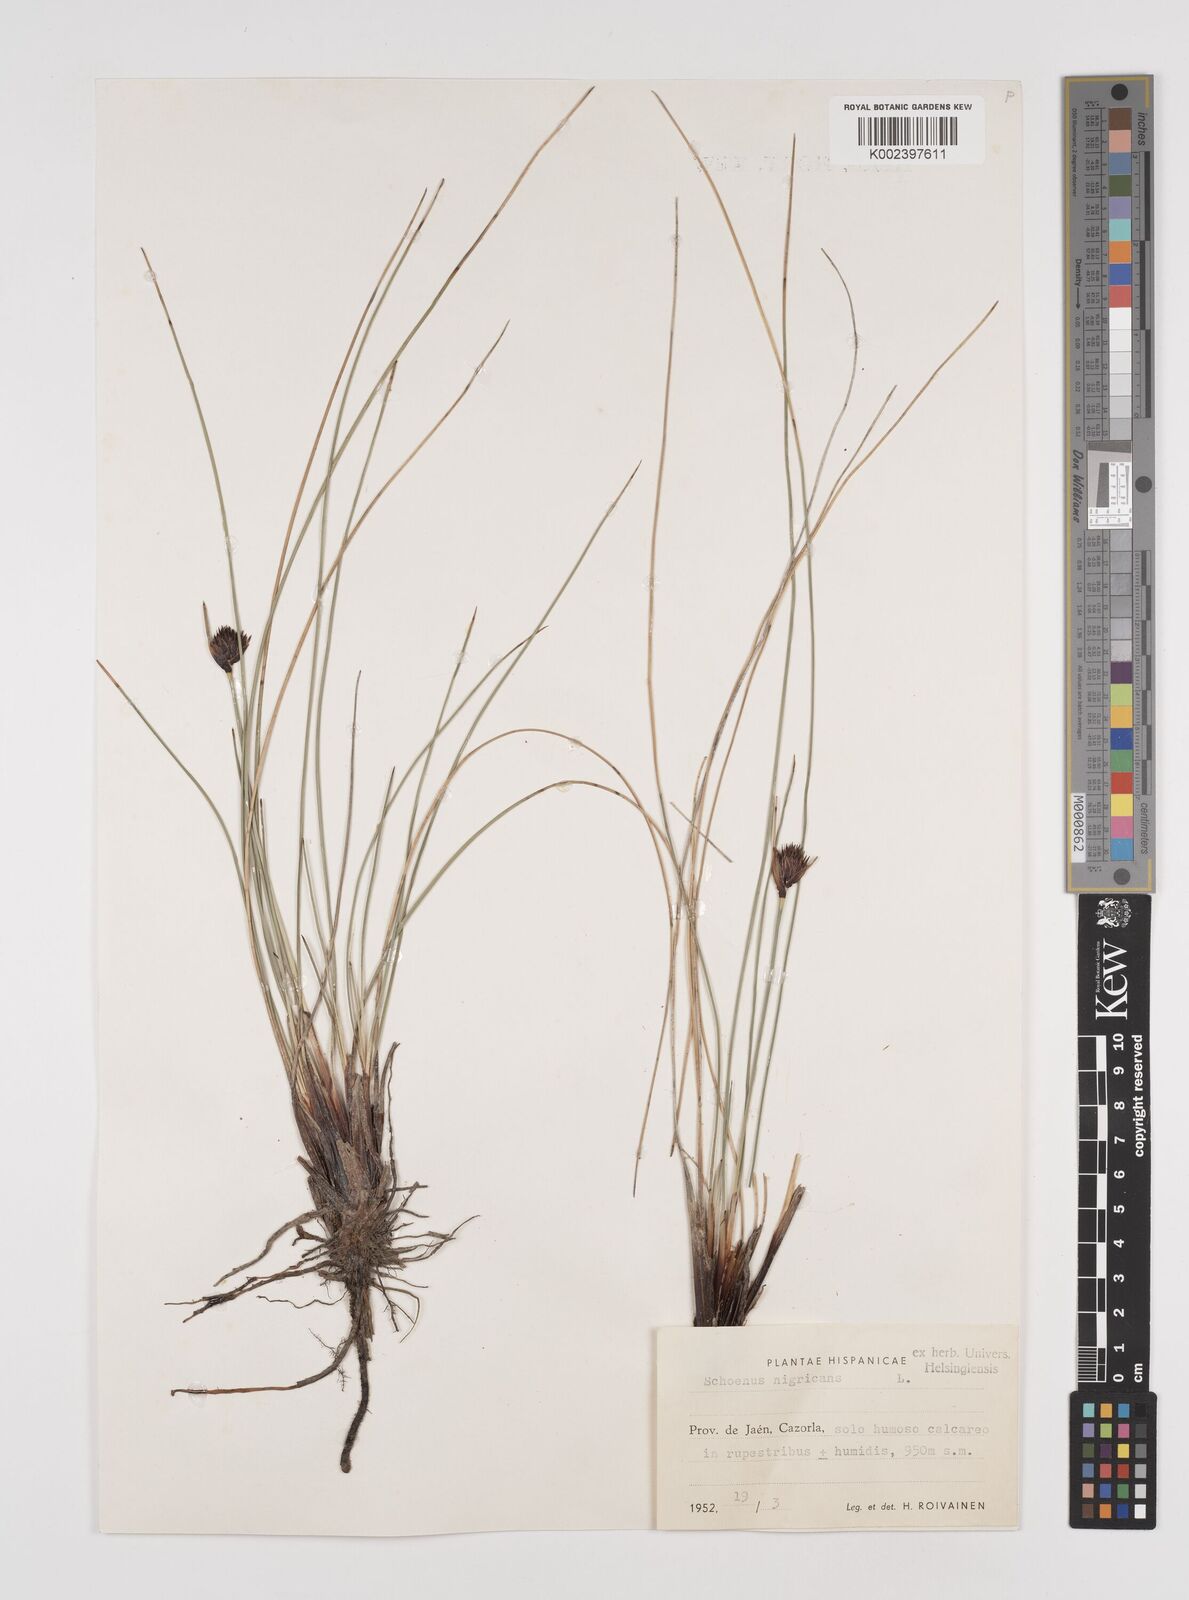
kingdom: Plantae
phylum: Tracheophyta
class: Liliopsida
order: Poales
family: Cyperaceae
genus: Schoenus
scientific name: Schoenus nigricans
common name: Black bog-rush
